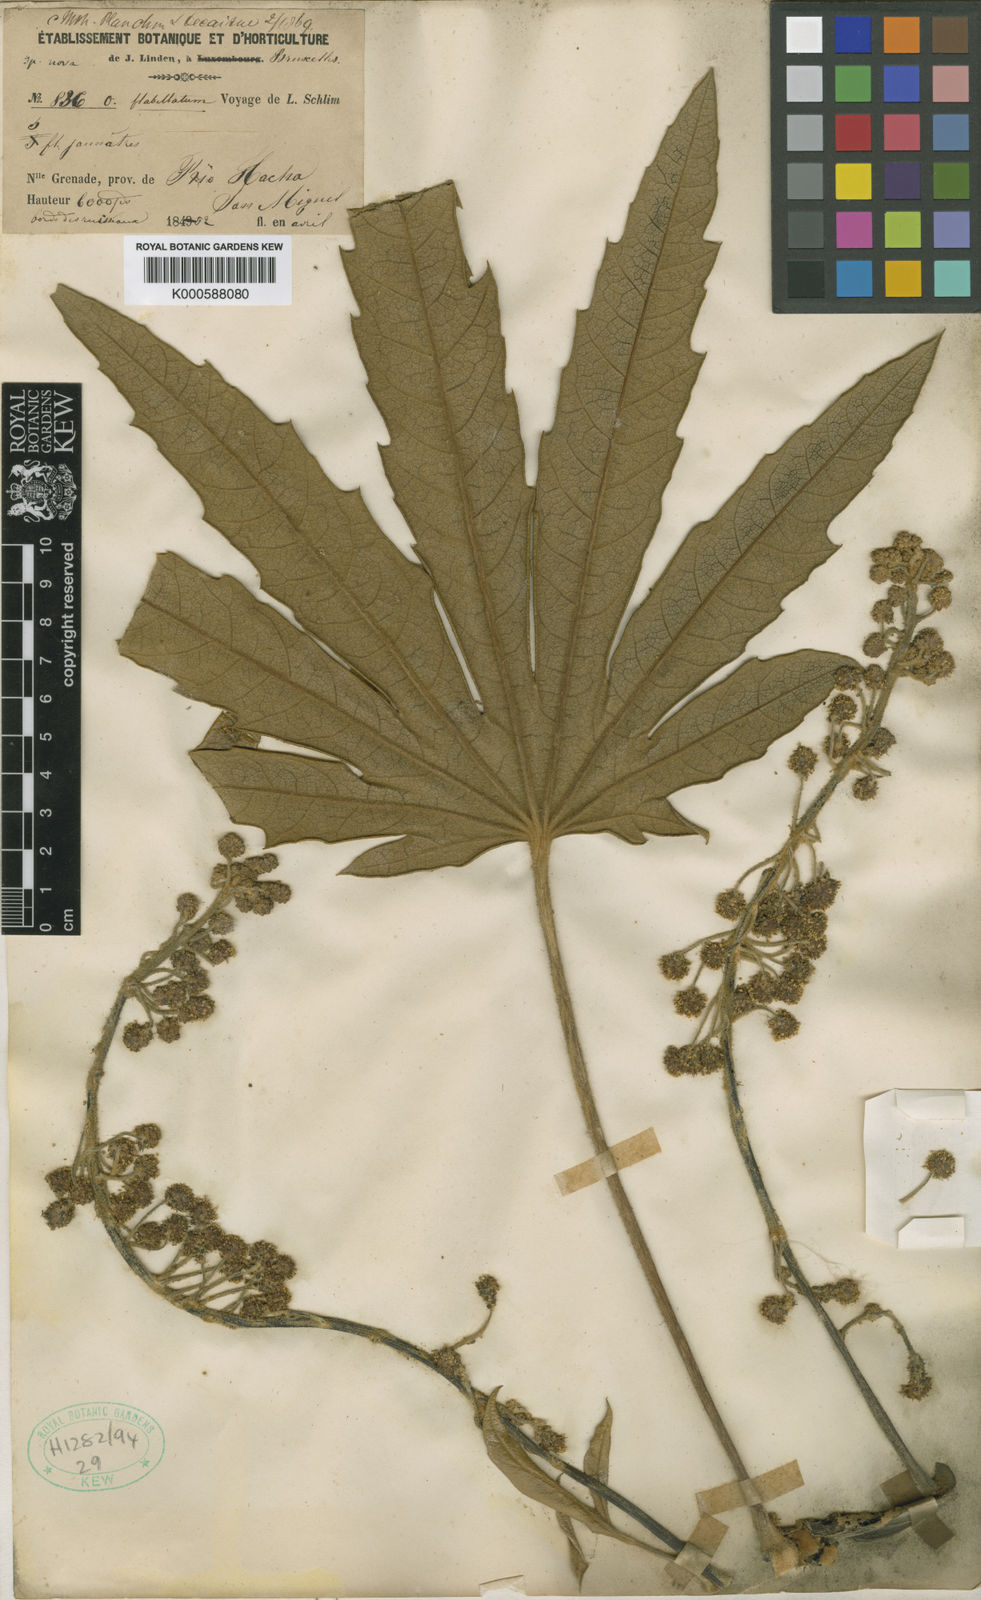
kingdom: Plantae
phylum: Tracheophyta
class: Magnoliopsida
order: Apiales
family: Araliaceae
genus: Oreopanax
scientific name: Oreopanax
